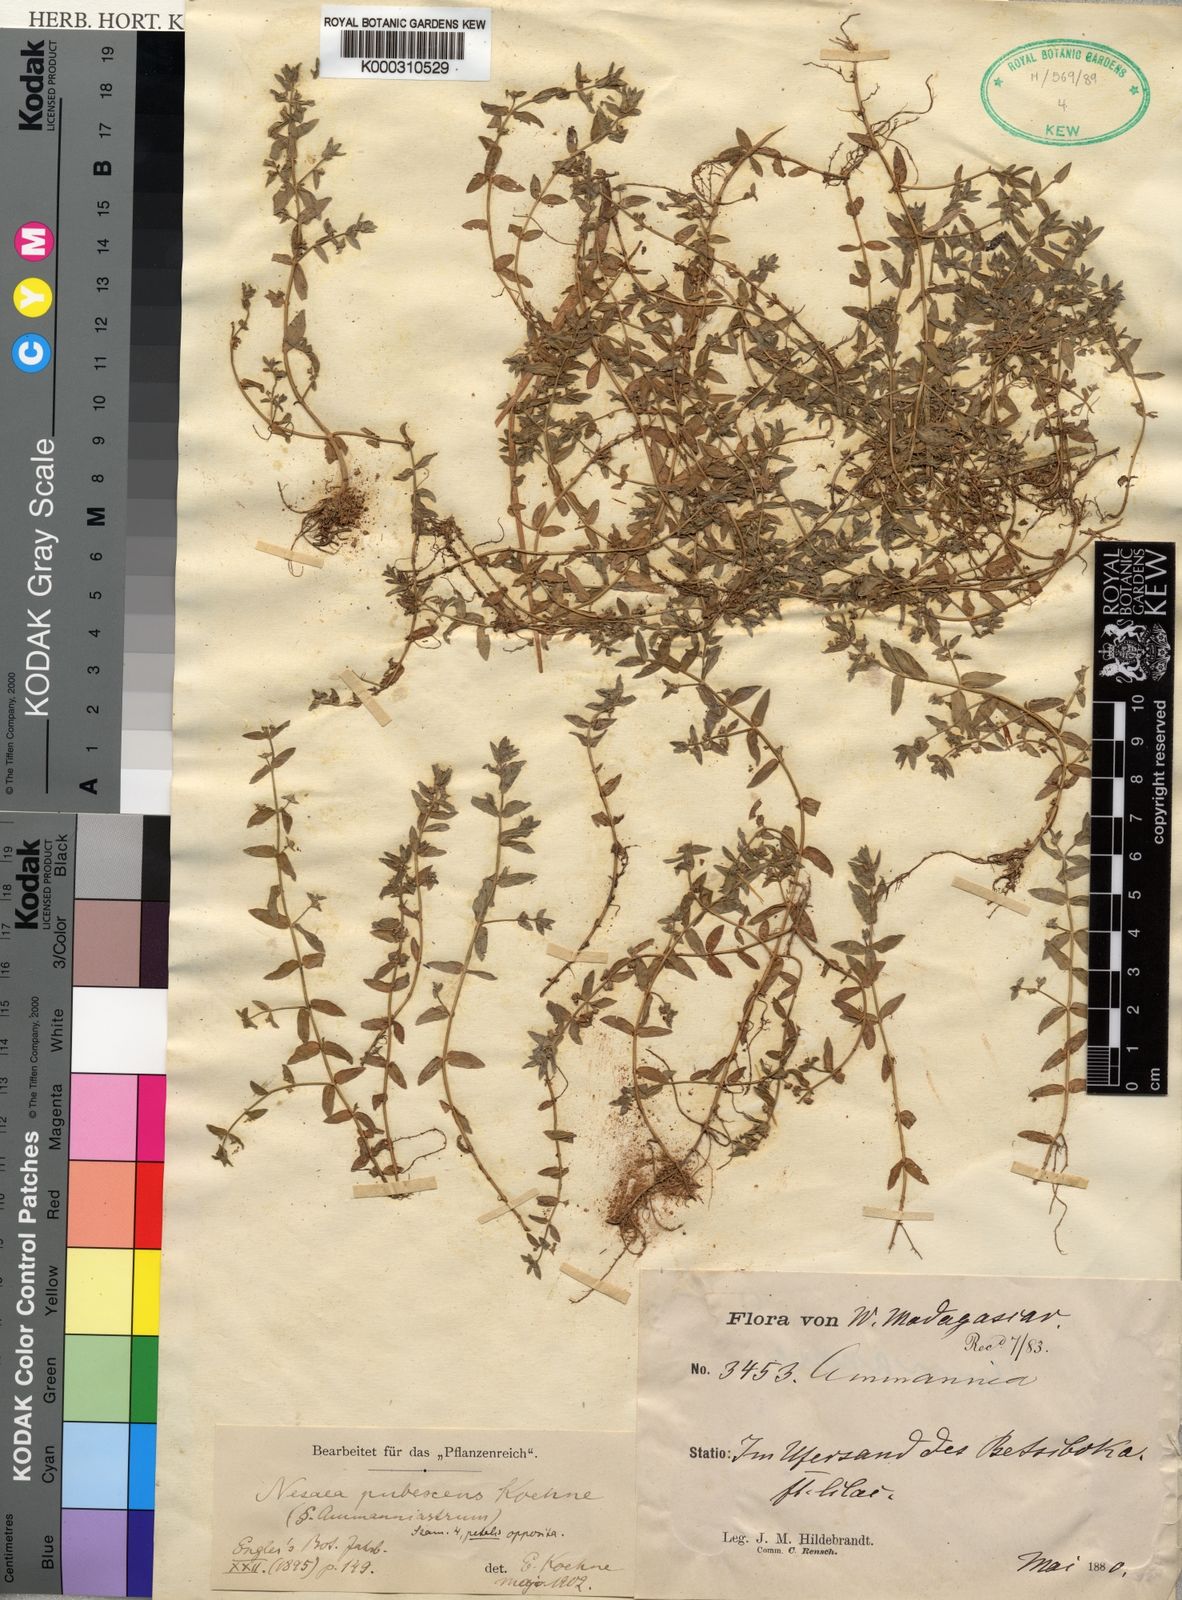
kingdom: Plantae
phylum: Tracheophyta
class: Magnoliopsida
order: Myrtales
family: Lythraceae
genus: Ammannia
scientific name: Ammannia pubescens
